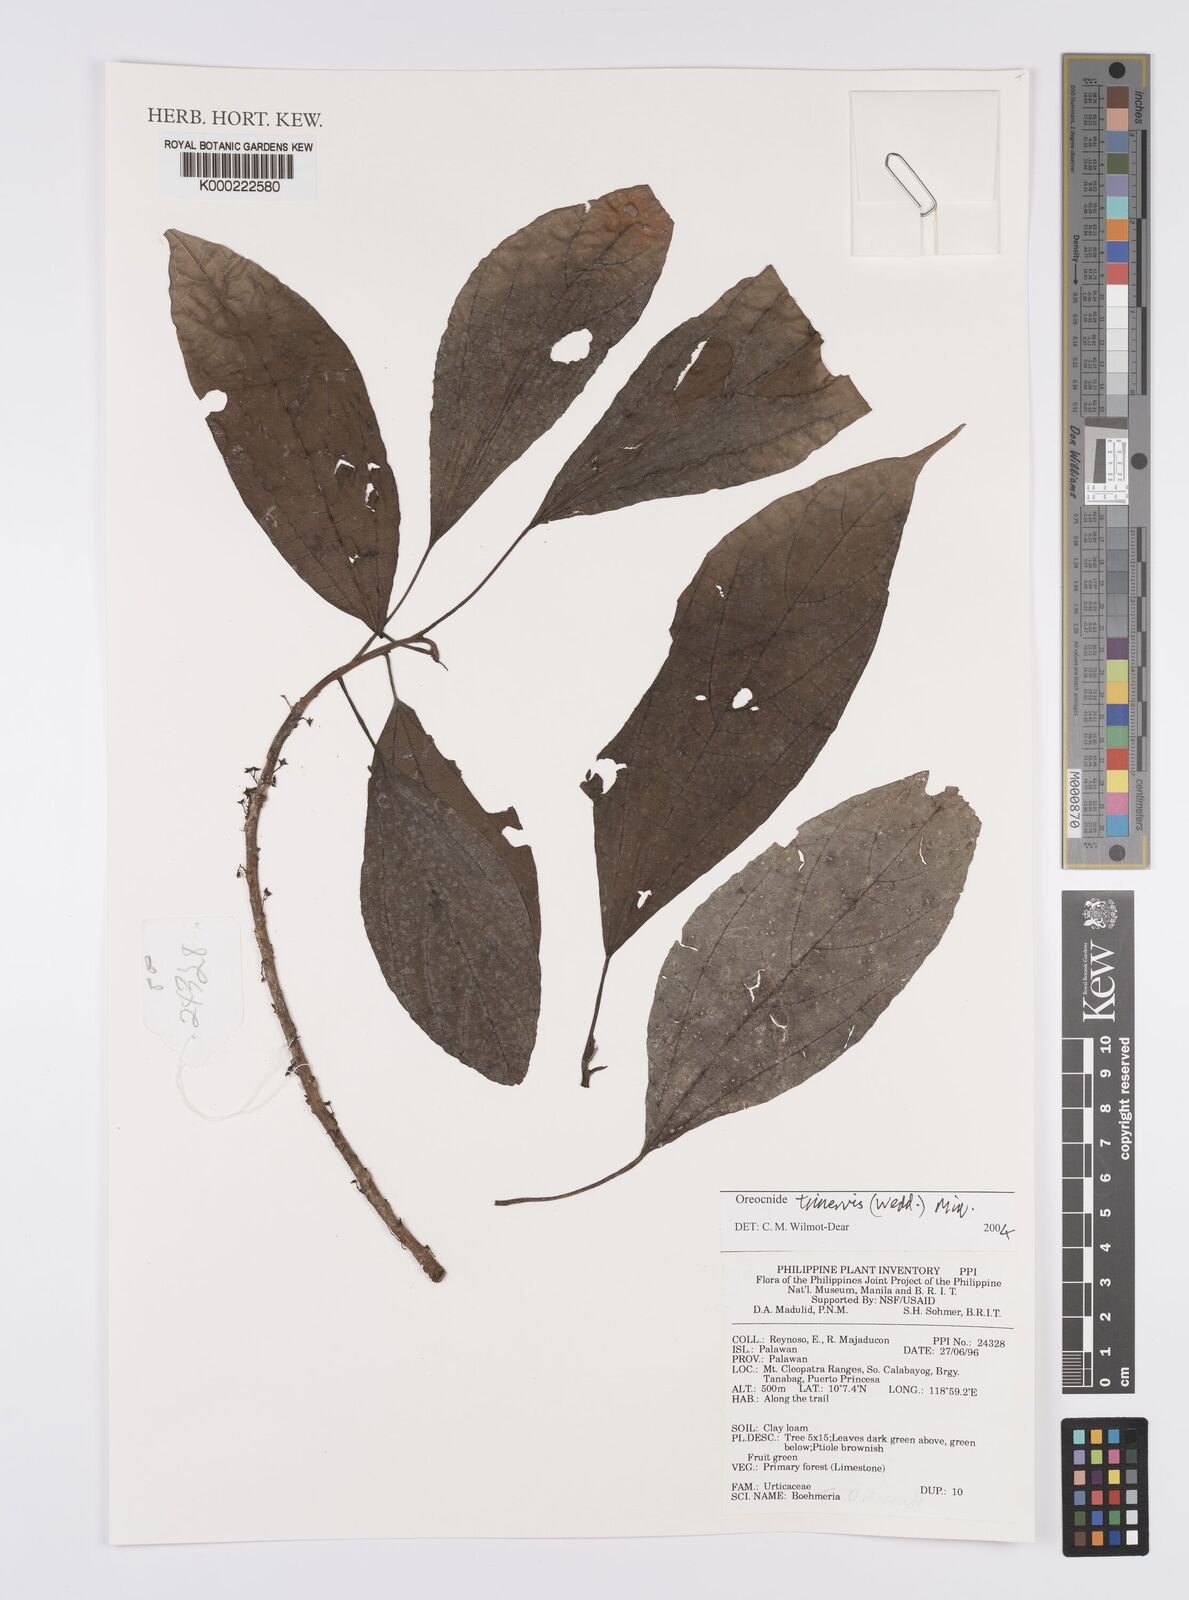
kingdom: Plantae
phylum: Tracheophyta
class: Magnoliopsida
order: Rosales
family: Urticaceae
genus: Oreocnide
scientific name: Oreocnide trinervis
